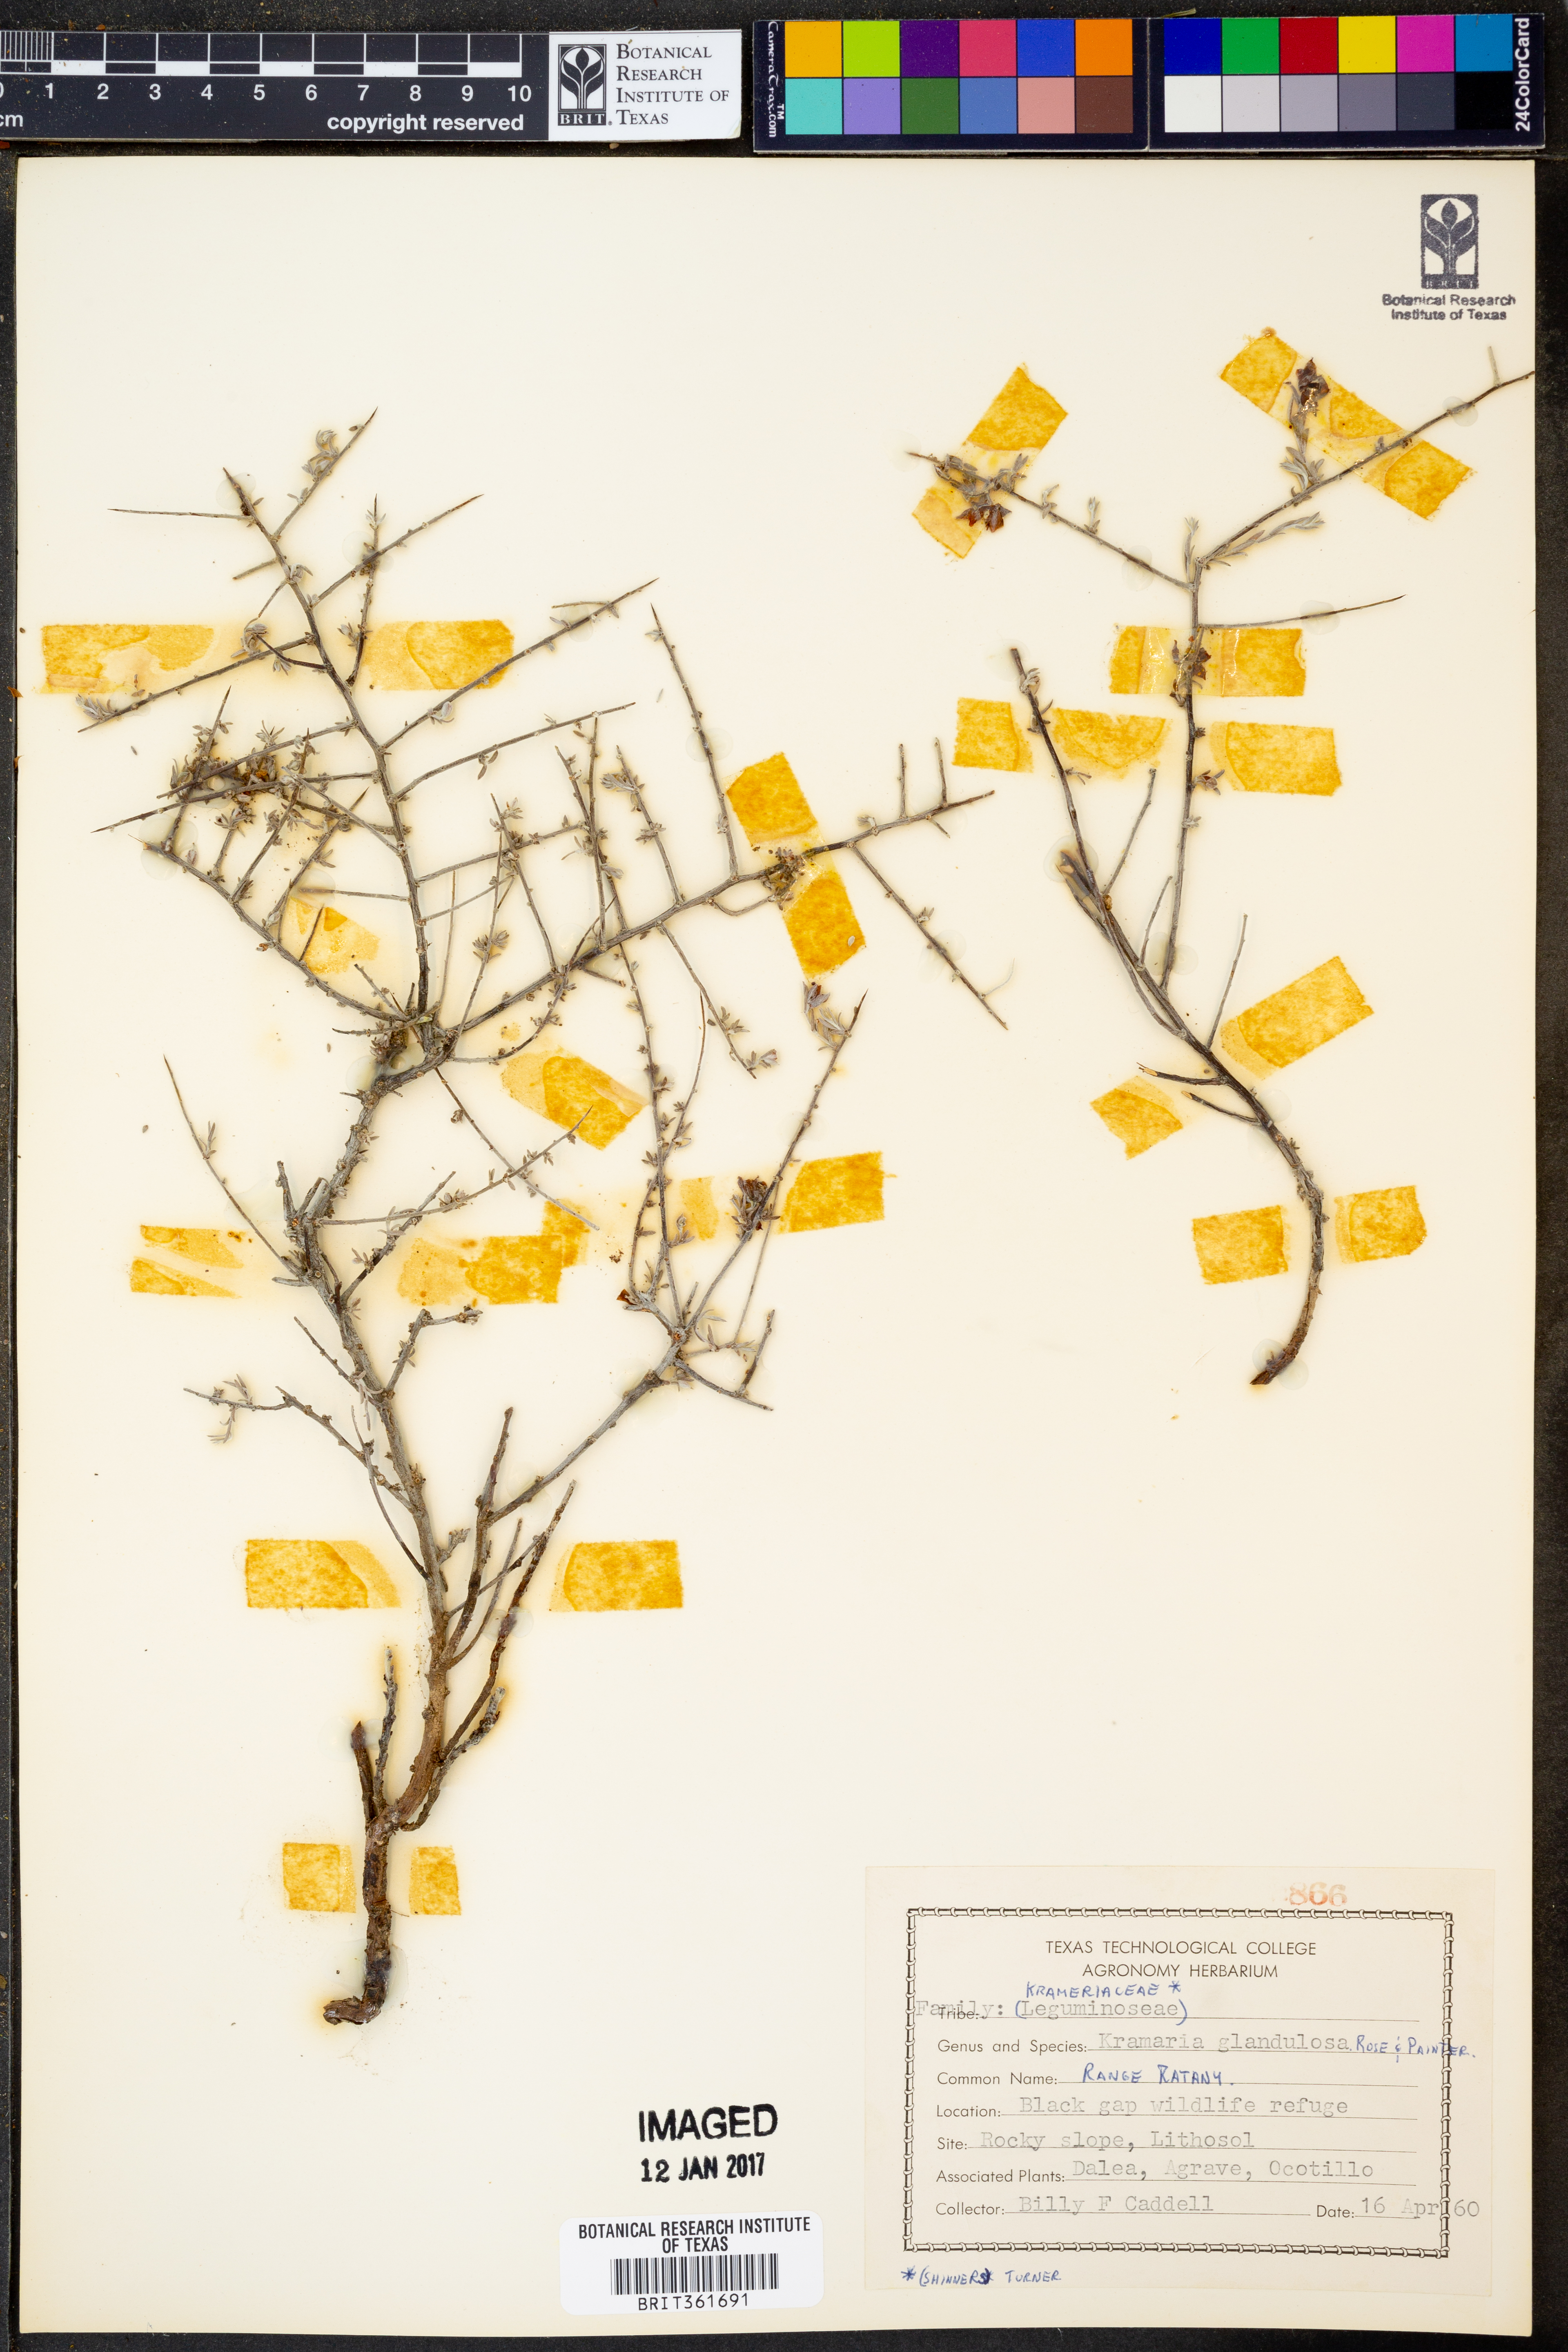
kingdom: Plantae
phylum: Tracheophyta
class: Magnoliopsida
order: Zygophyllales
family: Krameriaceae
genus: Krameria
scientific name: Krameria erecta
